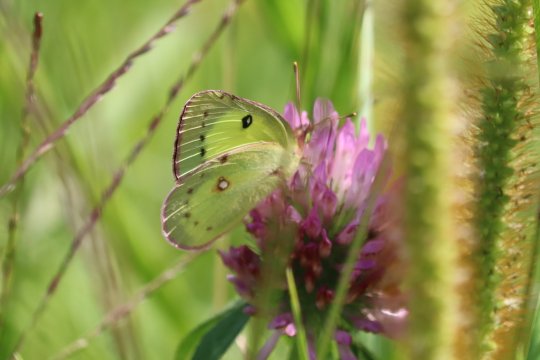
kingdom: Animalia
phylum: Arthropoda
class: Insecta
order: Lepidoptera
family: Pieridae
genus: Colias
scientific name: Colias philodice
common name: Clouded Sulphur
